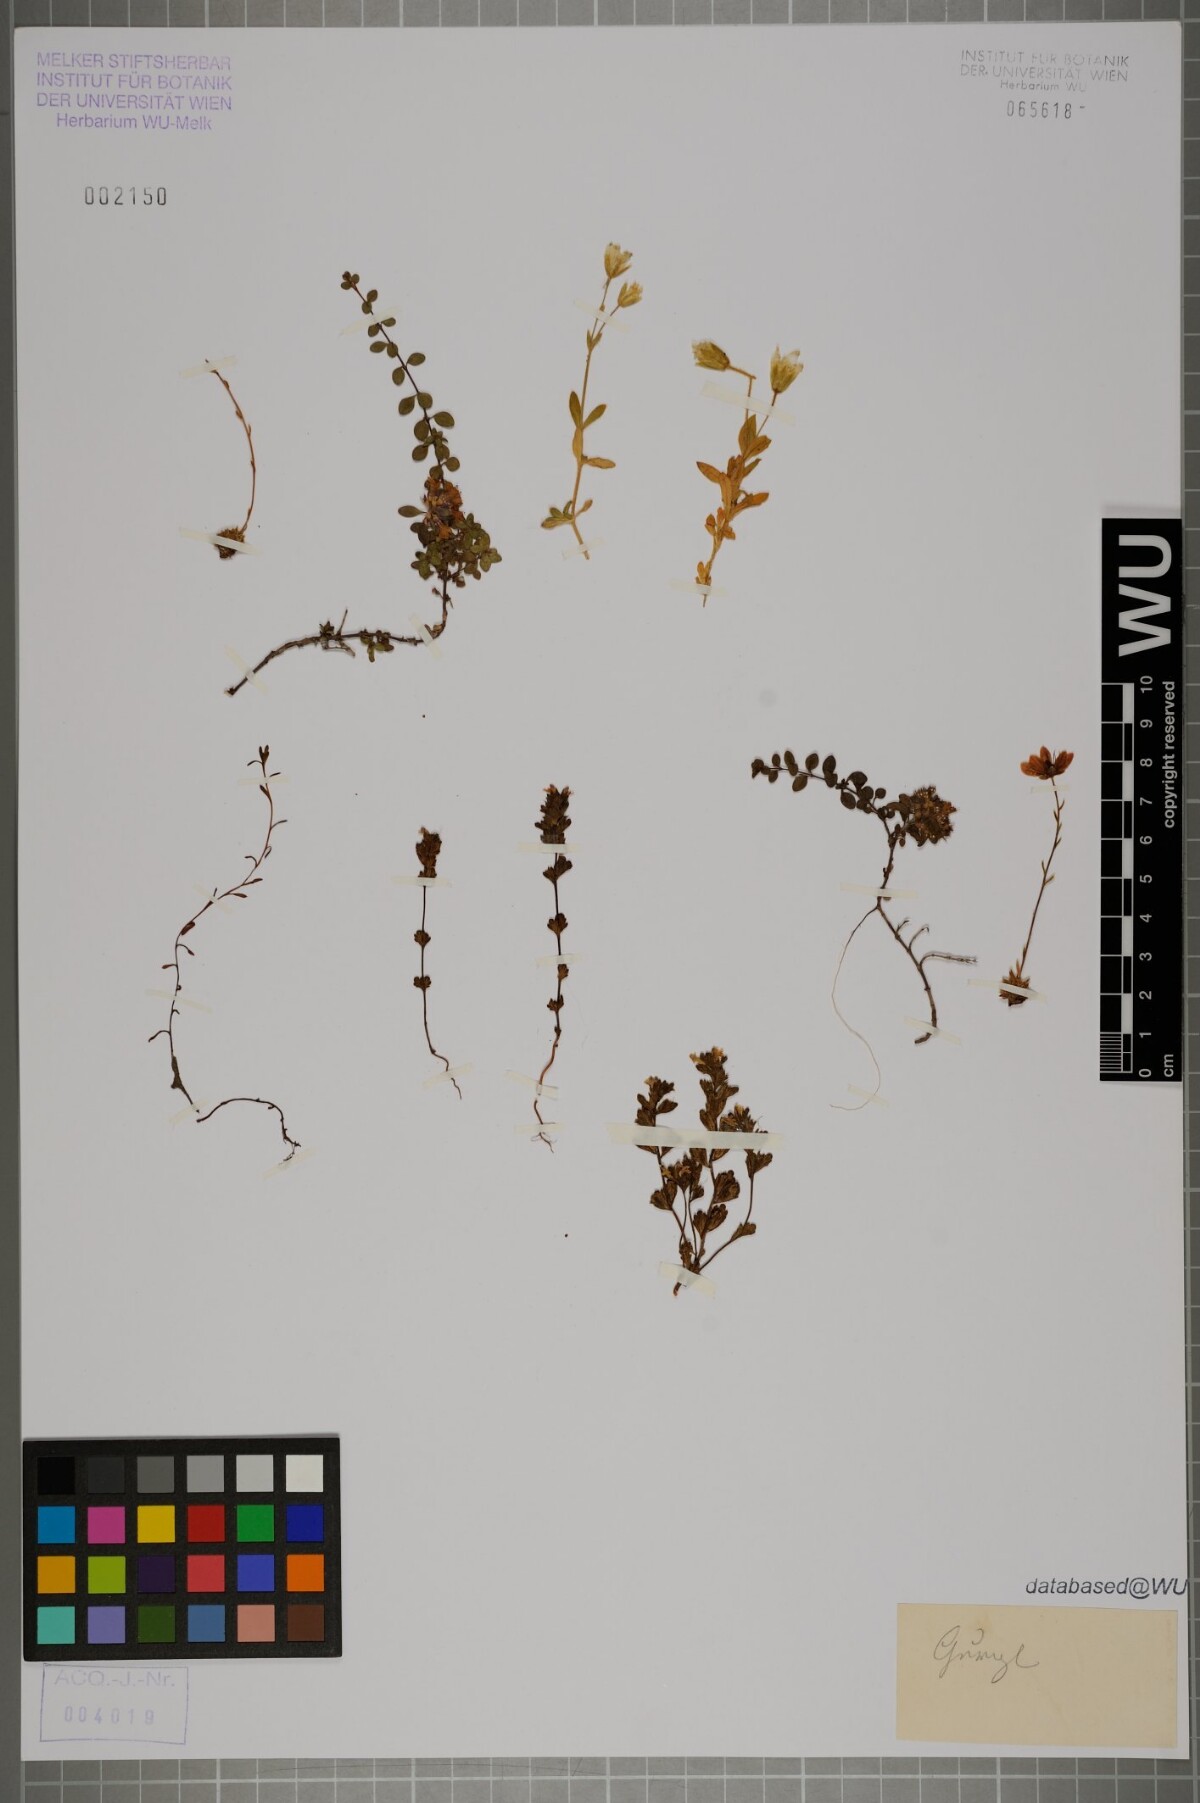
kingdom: Plantae
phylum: Tracheophyta
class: Magnoliopsida
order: Lamiales
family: Orobanchaceae
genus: Euphrasia
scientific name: Euphrasia
